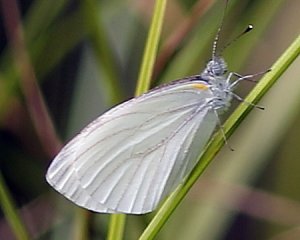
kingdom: Animalia
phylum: Arthropoda
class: Insecta
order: Lepidoptera
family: Pieridae
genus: Pieris
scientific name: Pieris oleracea
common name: Mustard White
